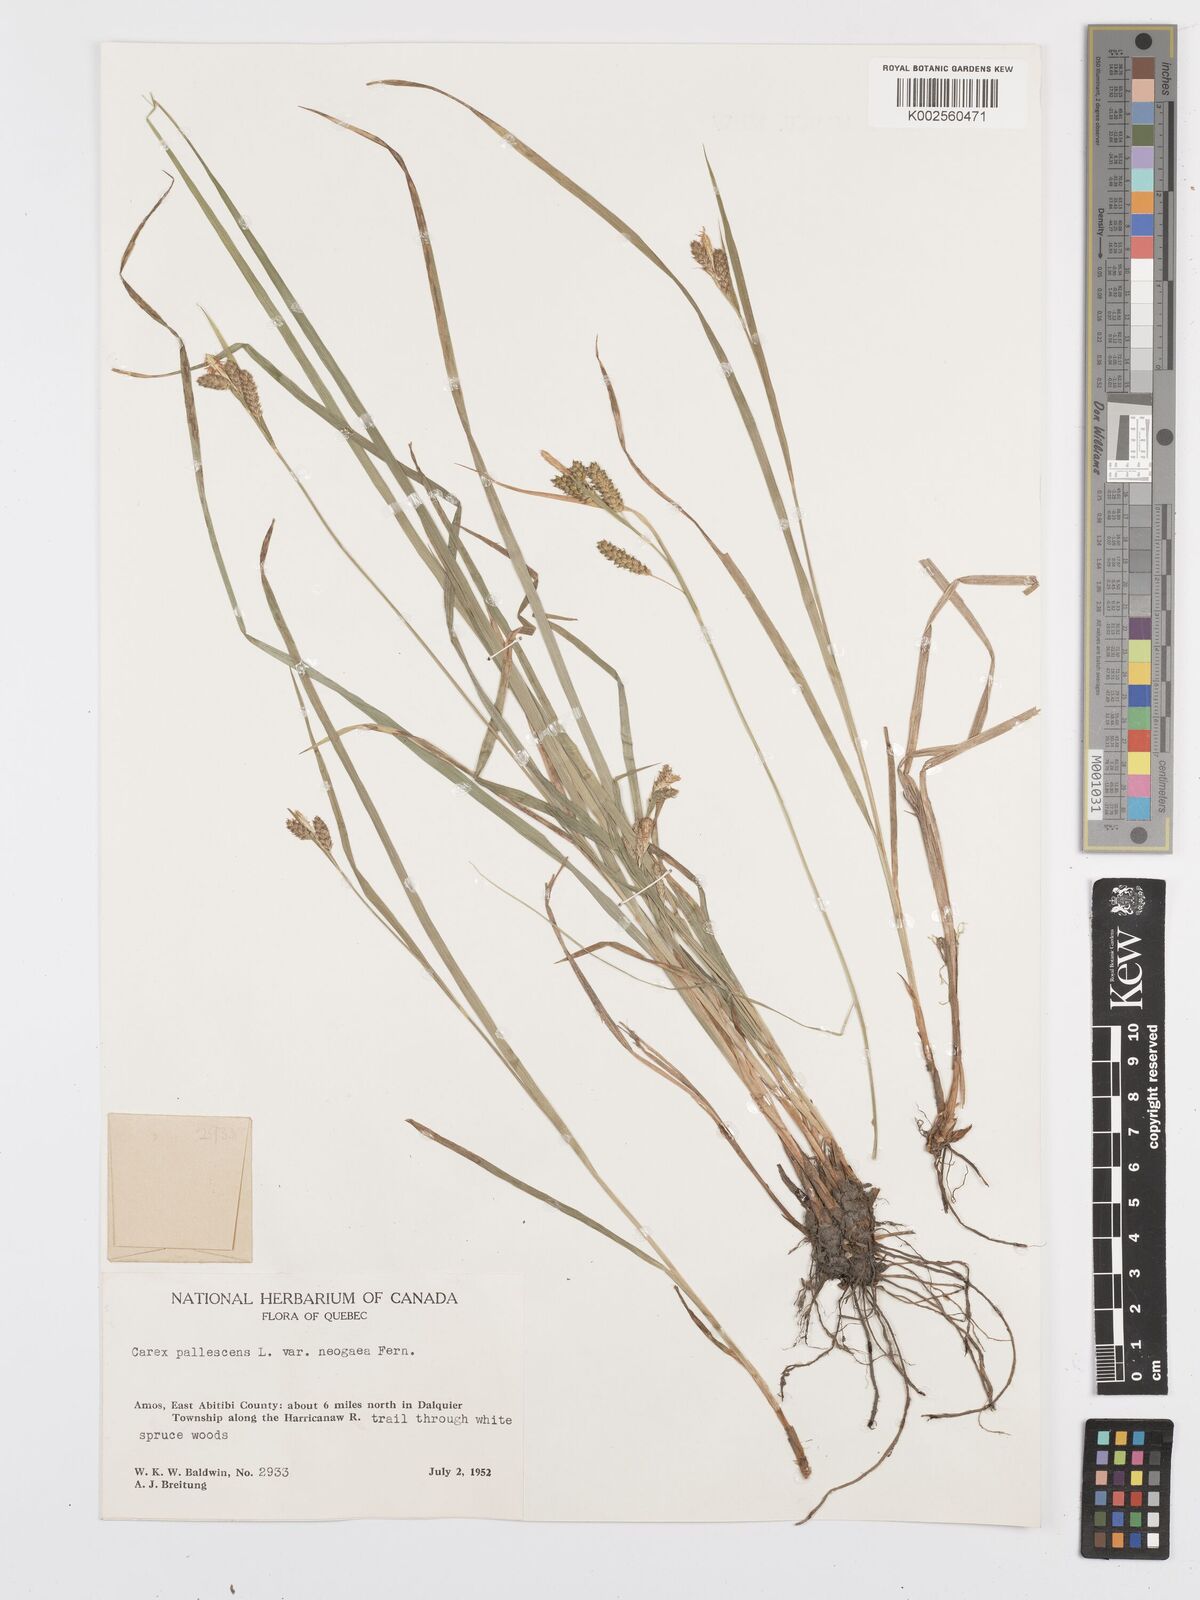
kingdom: Plantae
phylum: Tracheophyta
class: Liliopsida
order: Poales
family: Cyperaceae
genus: Carex
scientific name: Carex pallescens
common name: Pale sedge
